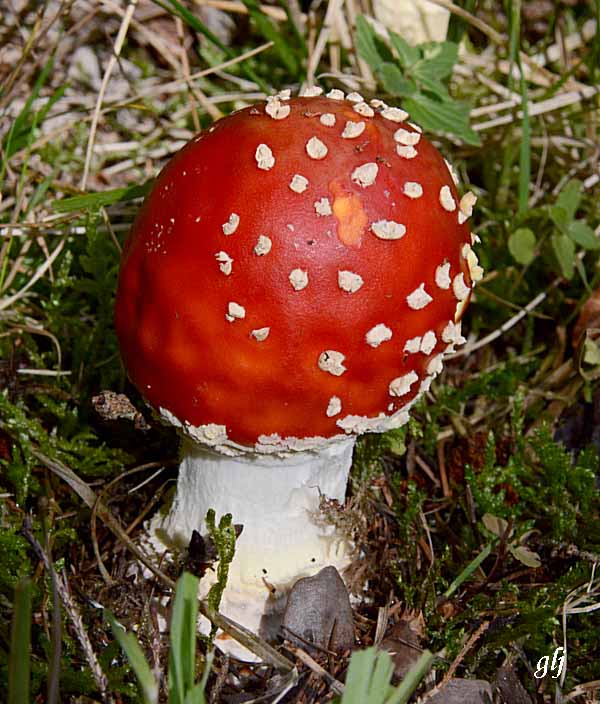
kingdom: Fungi
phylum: Basidiomycota
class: Agaricomycetes
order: Agaricales
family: Amanitaceae
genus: Amanita
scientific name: Amanita muscaria
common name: rød fluesvamp
